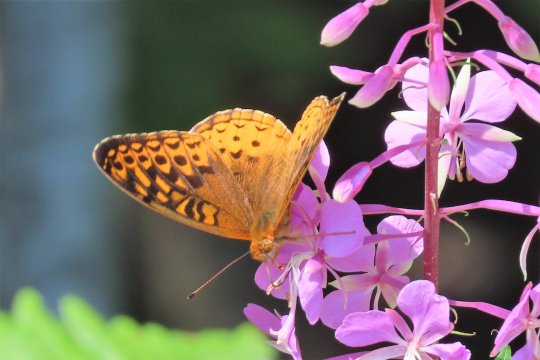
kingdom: Animalia
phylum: Arthropoda
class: Insecta
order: Lepidoptera
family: Nymphalidae
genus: Speyeria
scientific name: Speyeria cybele
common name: Great Spangled Fritillary
